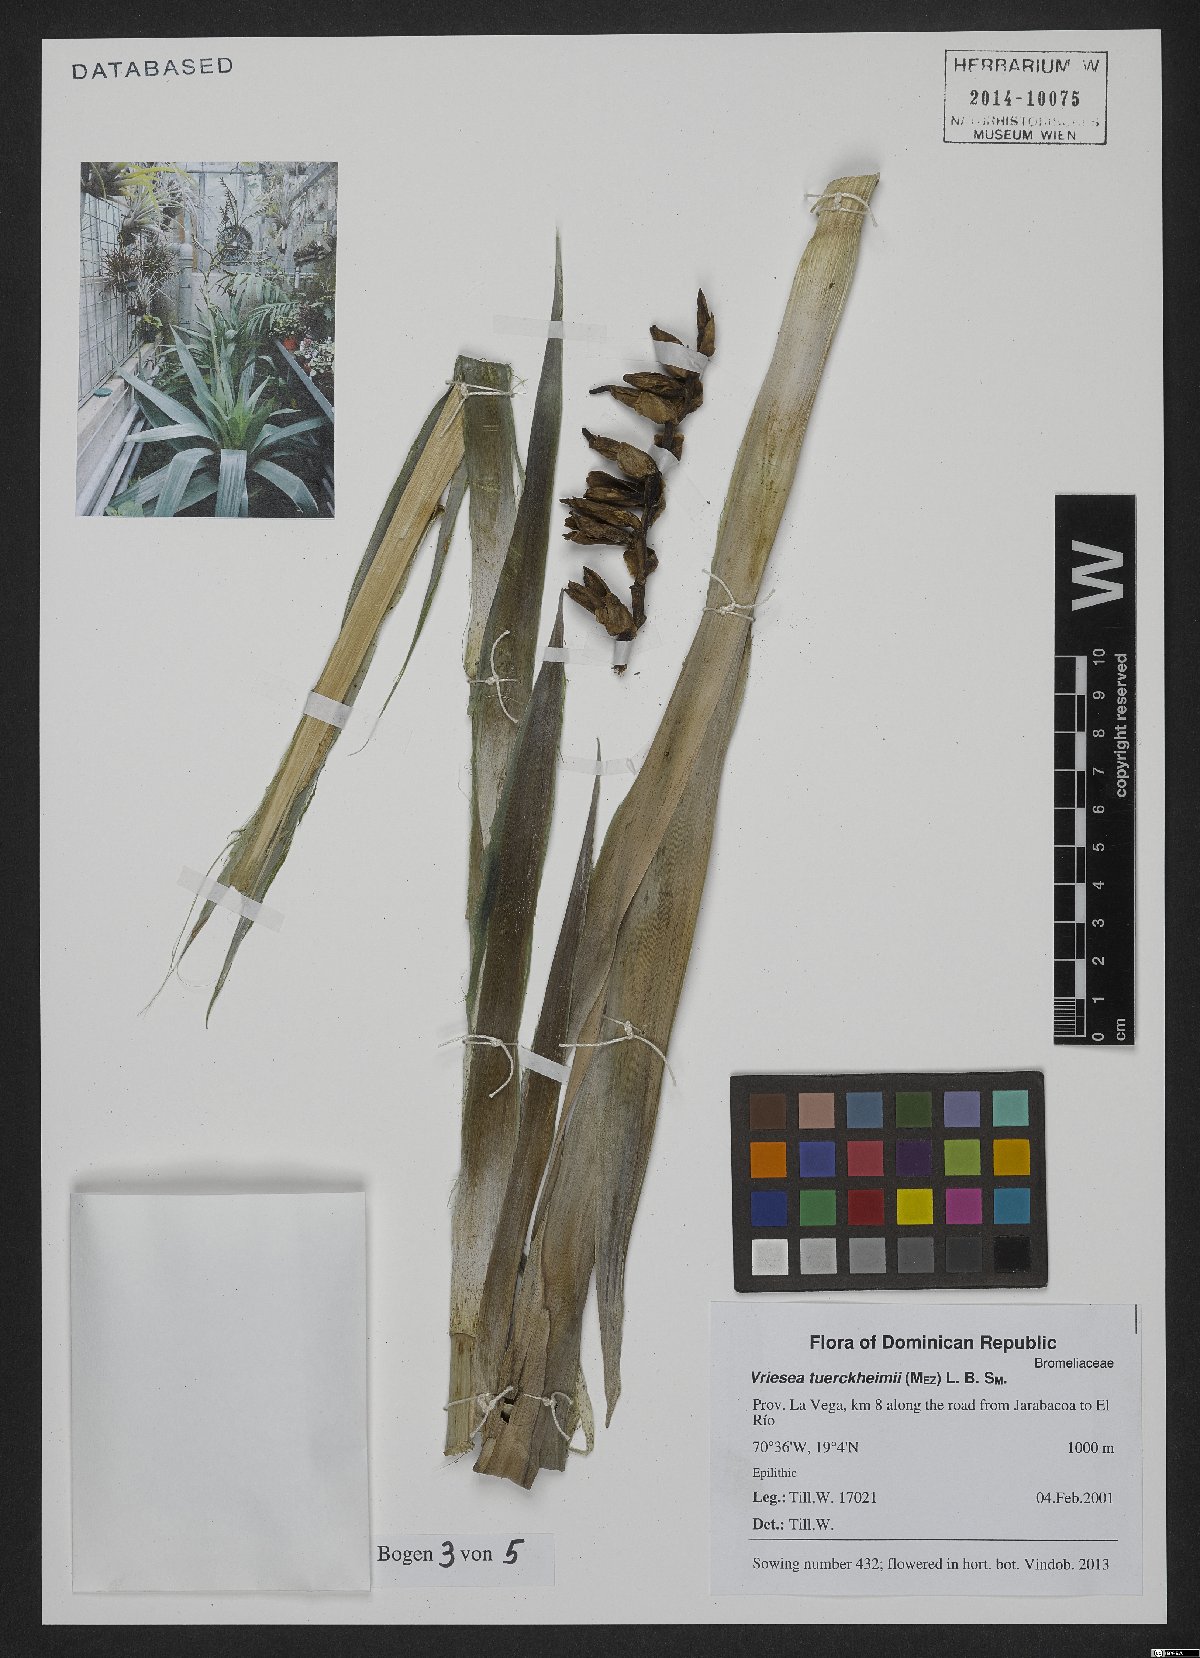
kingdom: Plantae
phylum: Tracheophyta
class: Liliopsida
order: Poales
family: Bromeliaceae
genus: Zizkaea
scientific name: Zizkaea tuerckheimii
